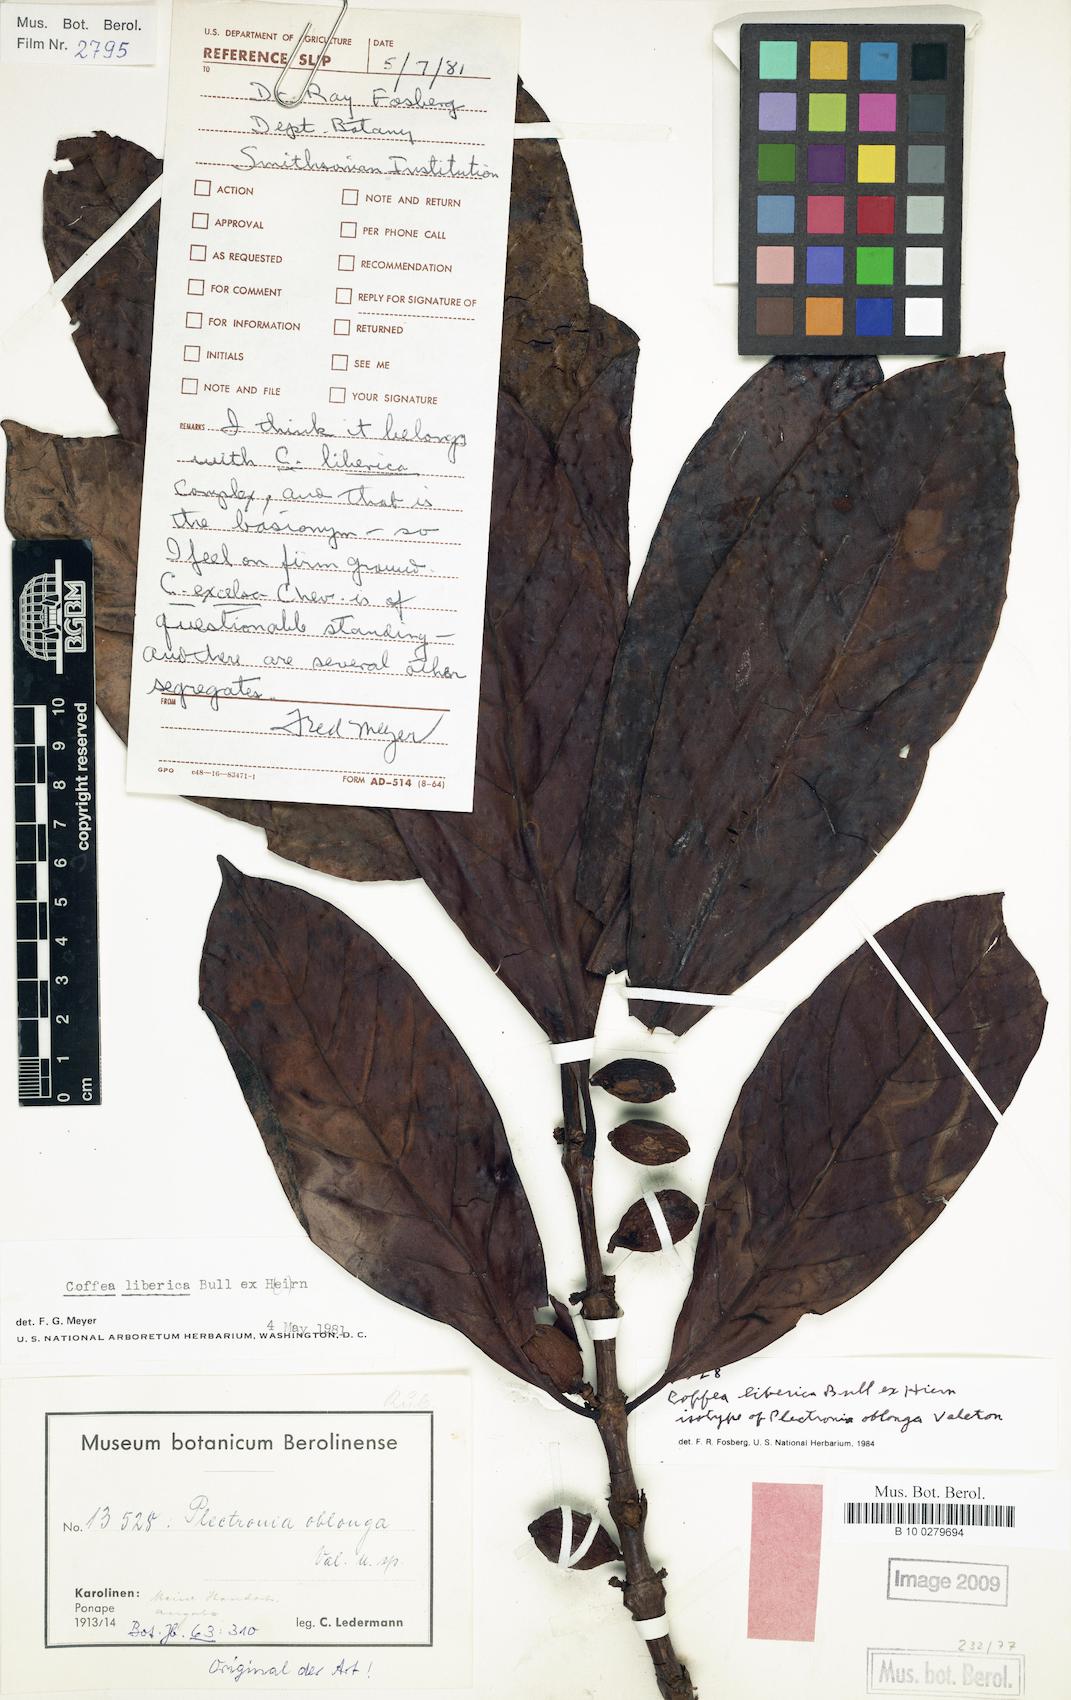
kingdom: Plantae
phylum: Tracheophyta
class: Magnoliopsida
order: Gentianales
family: Rubiaceae
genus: Coffea
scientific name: Coffea liberica
